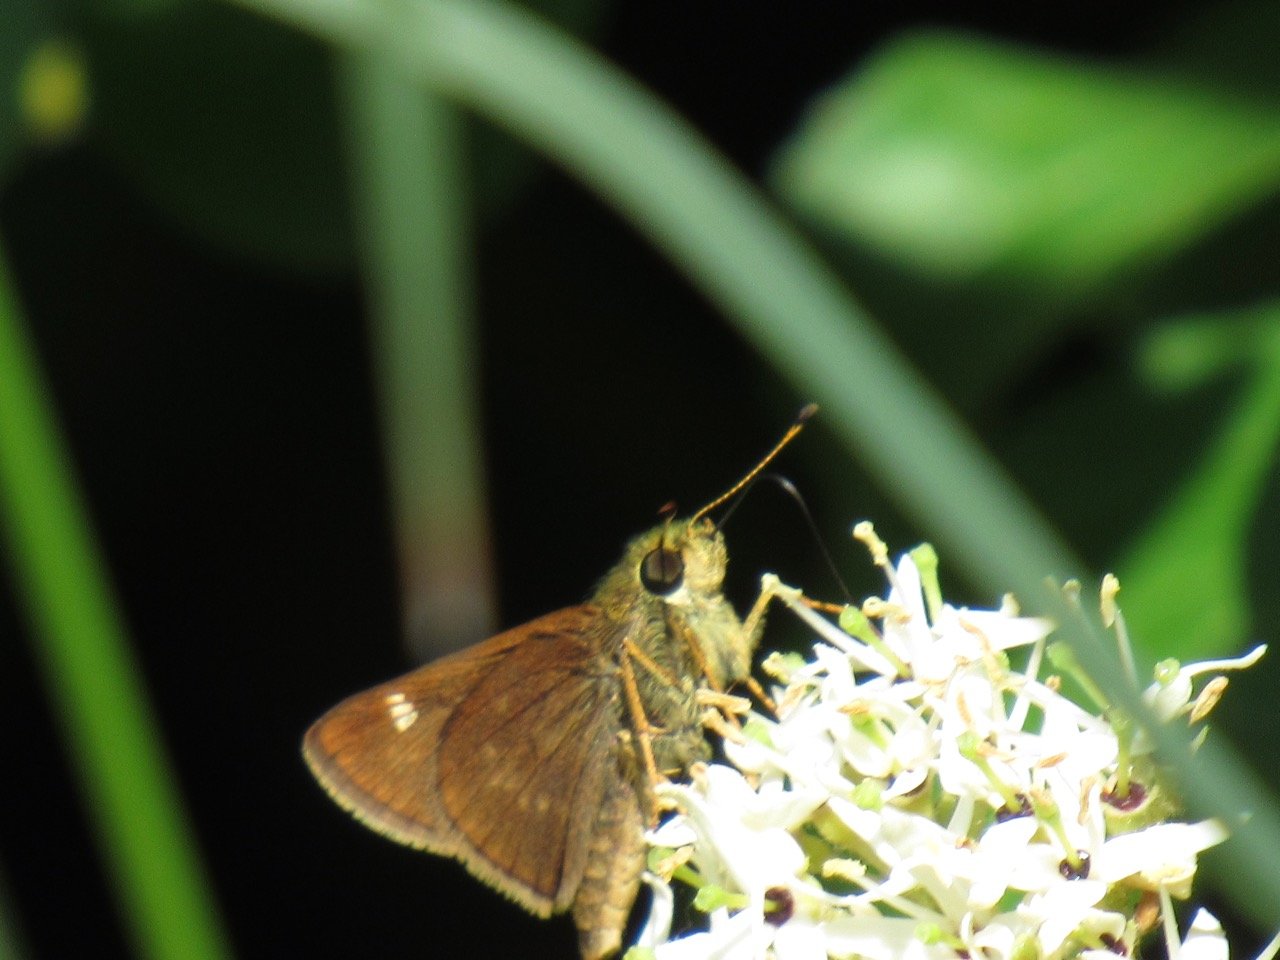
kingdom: Animalia
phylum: Arthropoda
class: Insecta
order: Lepidoptera
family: Hesperiidae
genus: Vernia
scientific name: Vernia verna
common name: Little Glassywing
